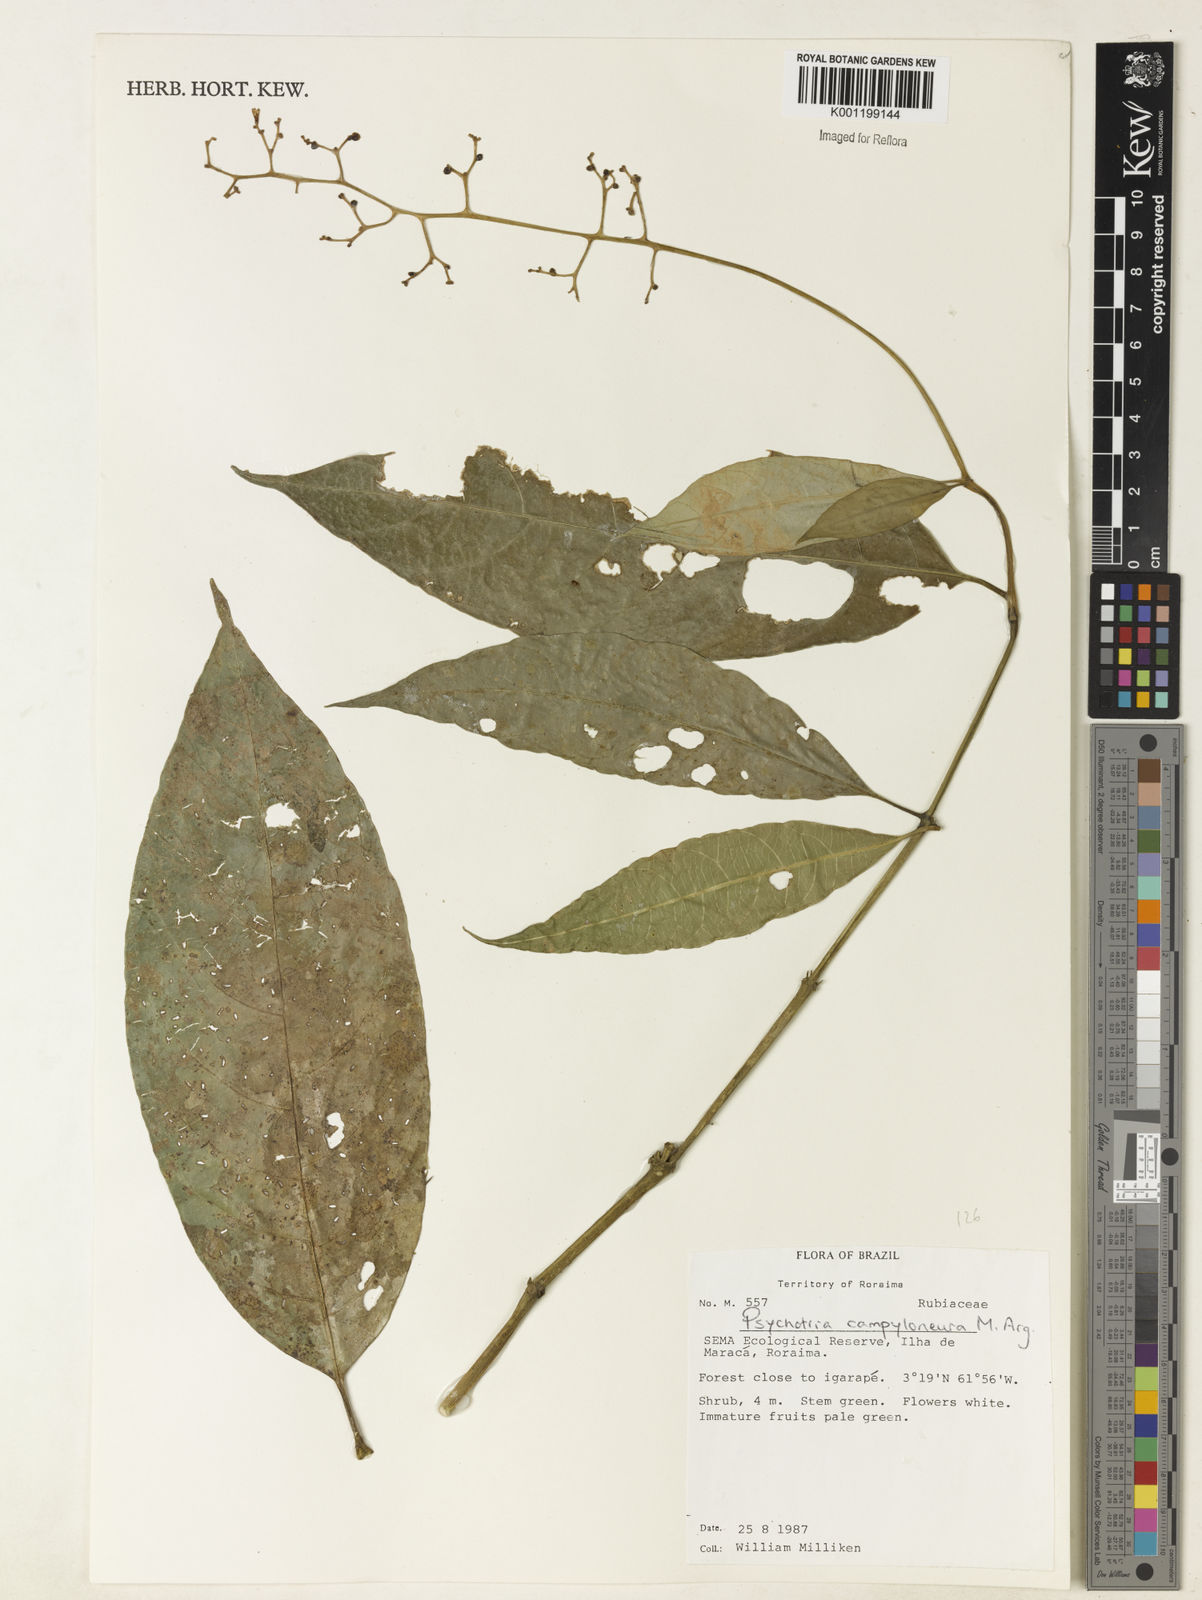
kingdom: Plantae
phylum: Tracheophyta
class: Magnoliopsida
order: Gentianales
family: Rubiaceae
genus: Psychotria
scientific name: Psychotria
